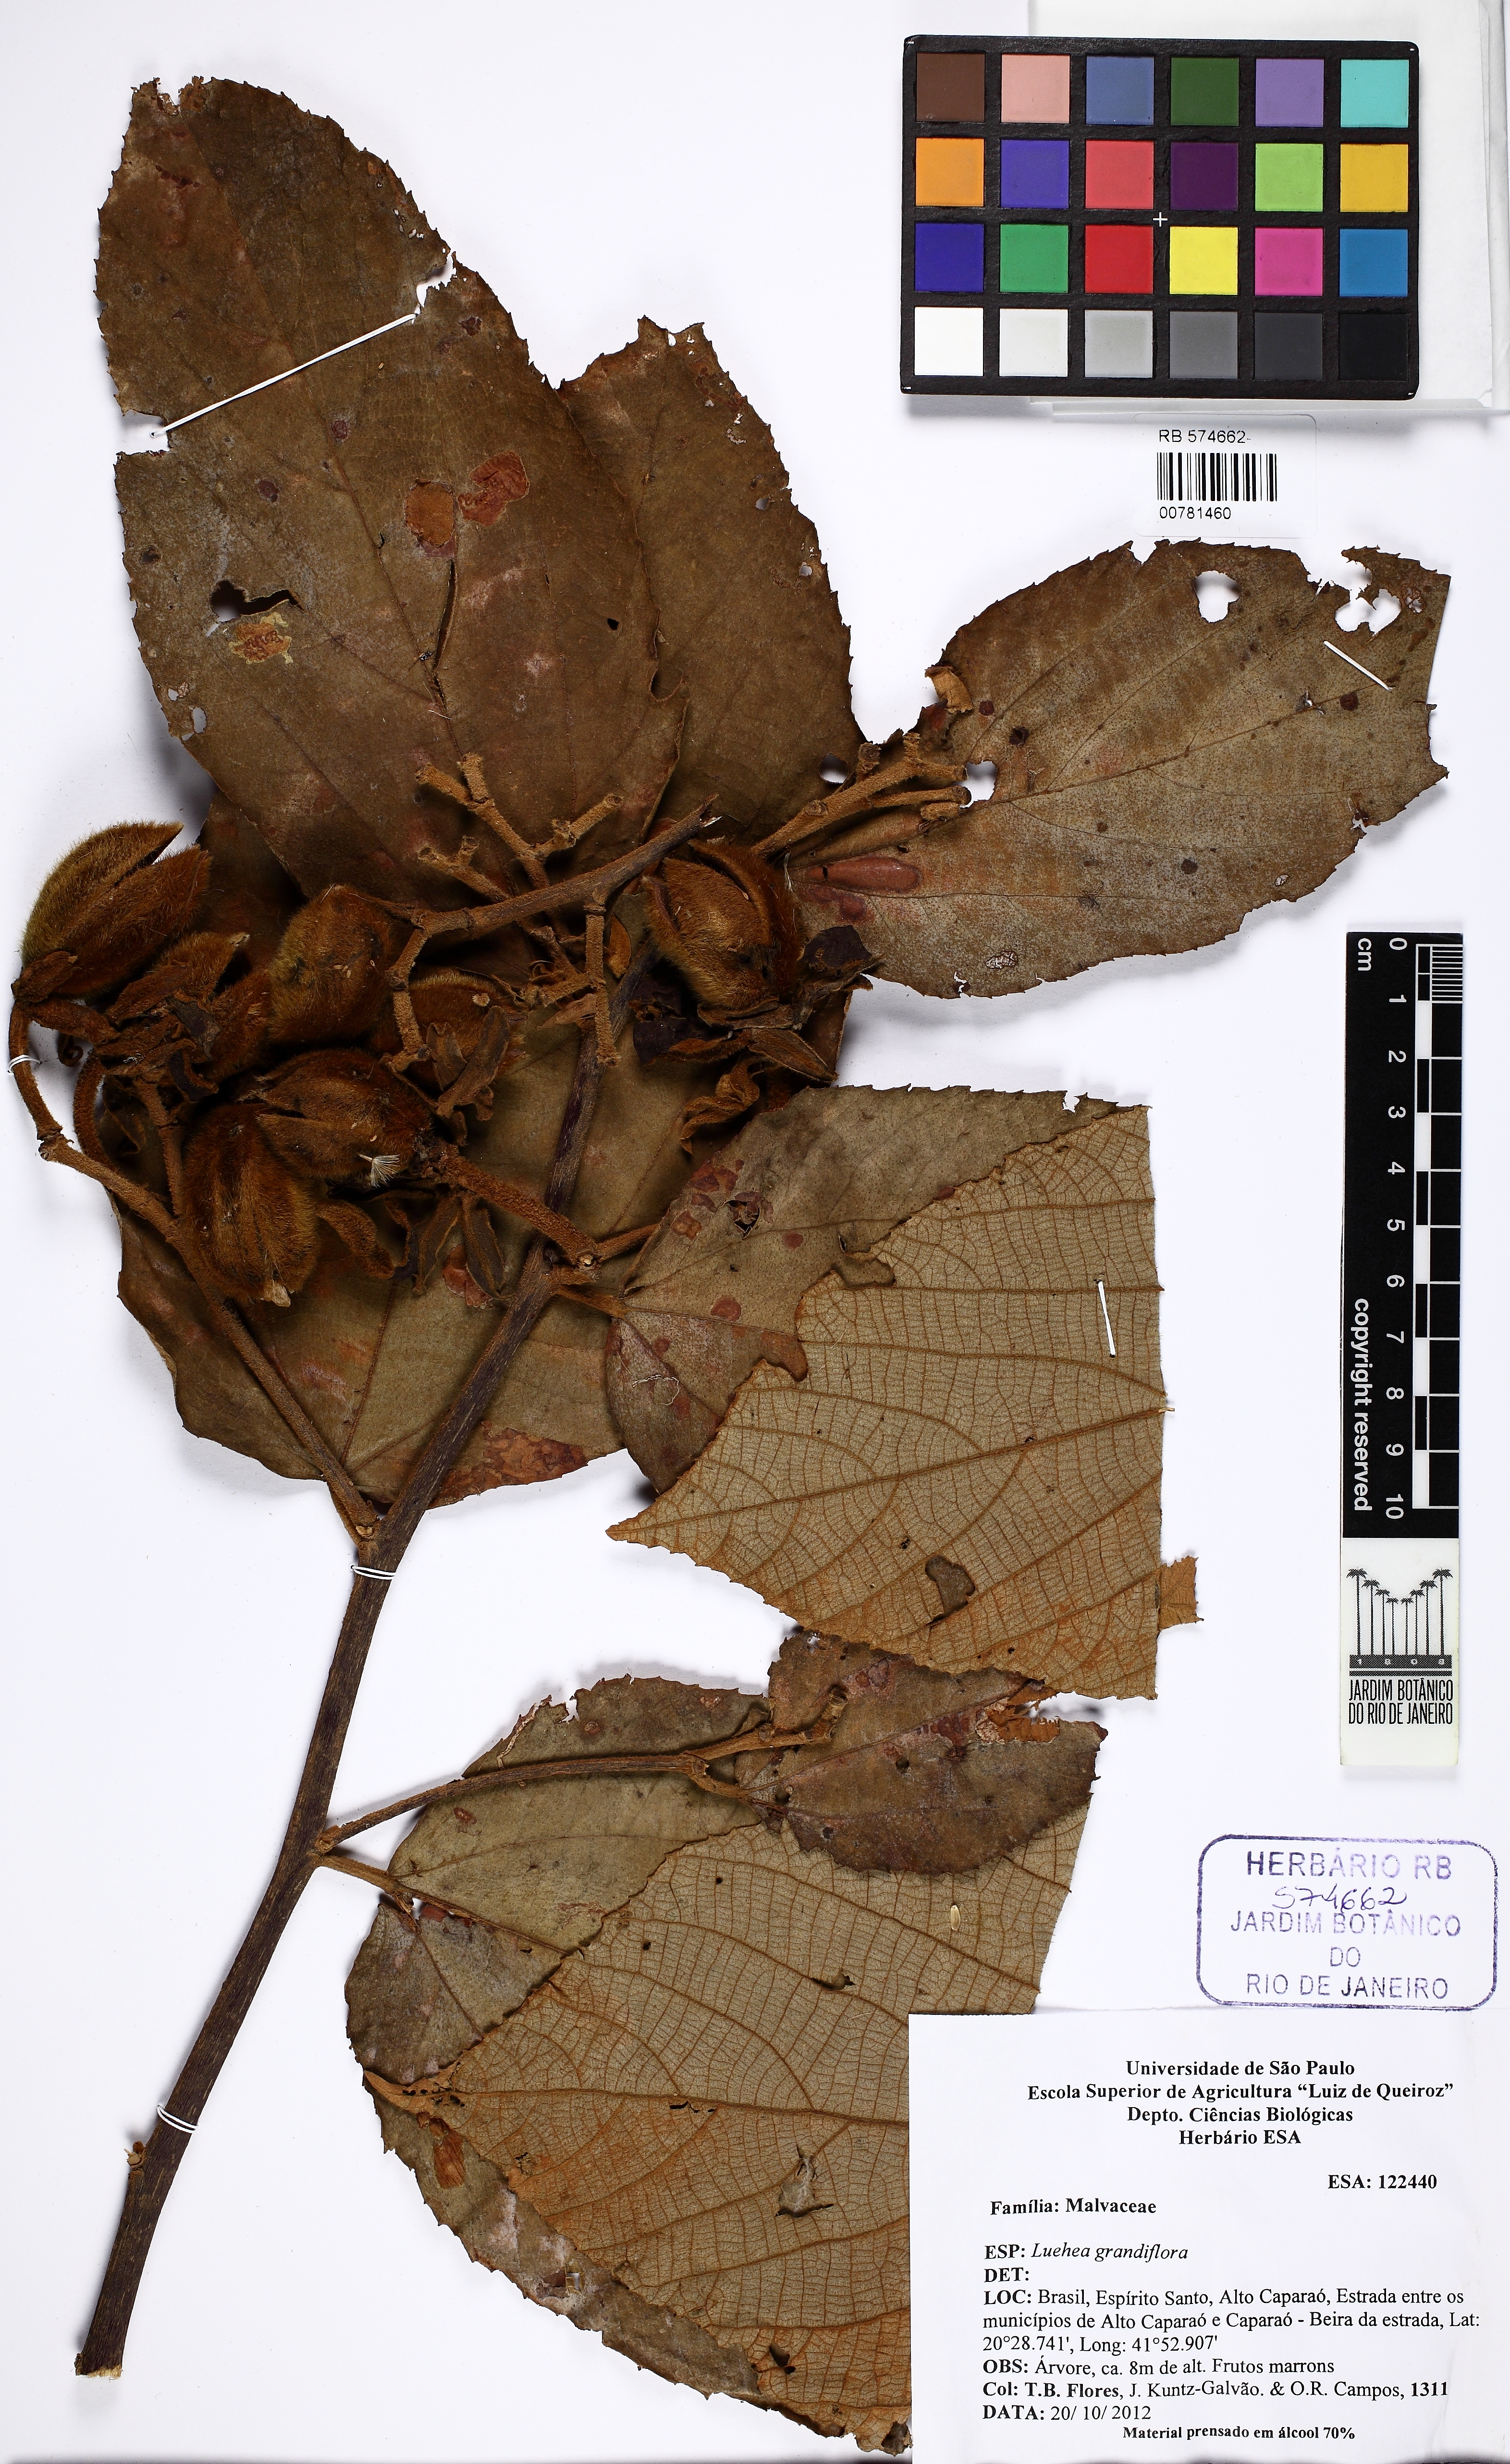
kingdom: Plantae
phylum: Tracheophyta
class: Magnoliopsida
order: Malvales
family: Malvaceae
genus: Luehea
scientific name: Luehea grandiflora
